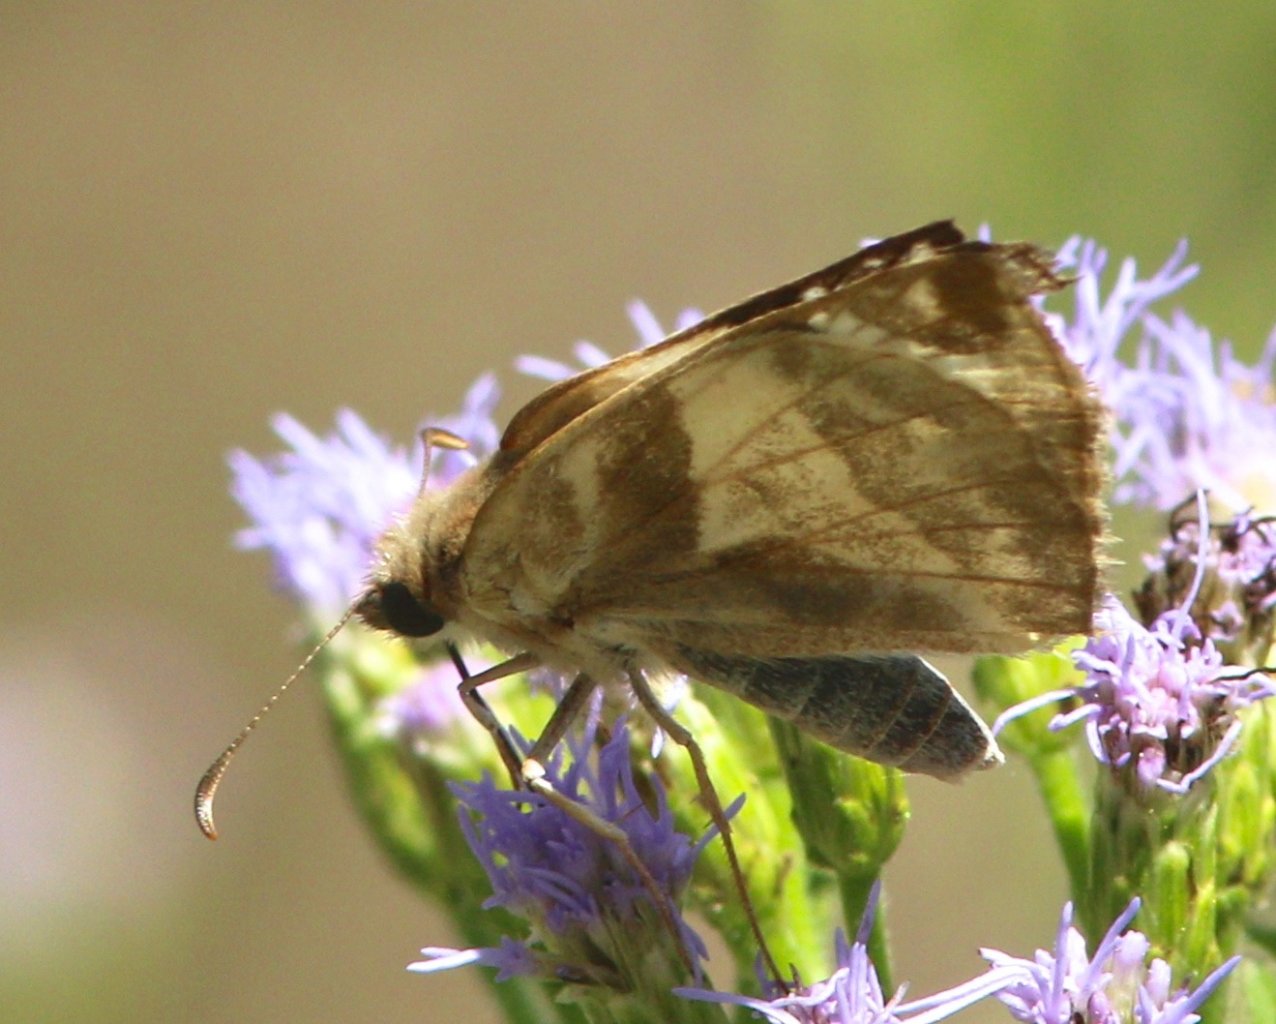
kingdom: Animalia
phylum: Arthropoda
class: Insecta
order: Lepidoptera
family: Hesperiidae
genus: Heliopetes
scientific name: Heliopetes laviana
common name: Laviana White-Skipper
